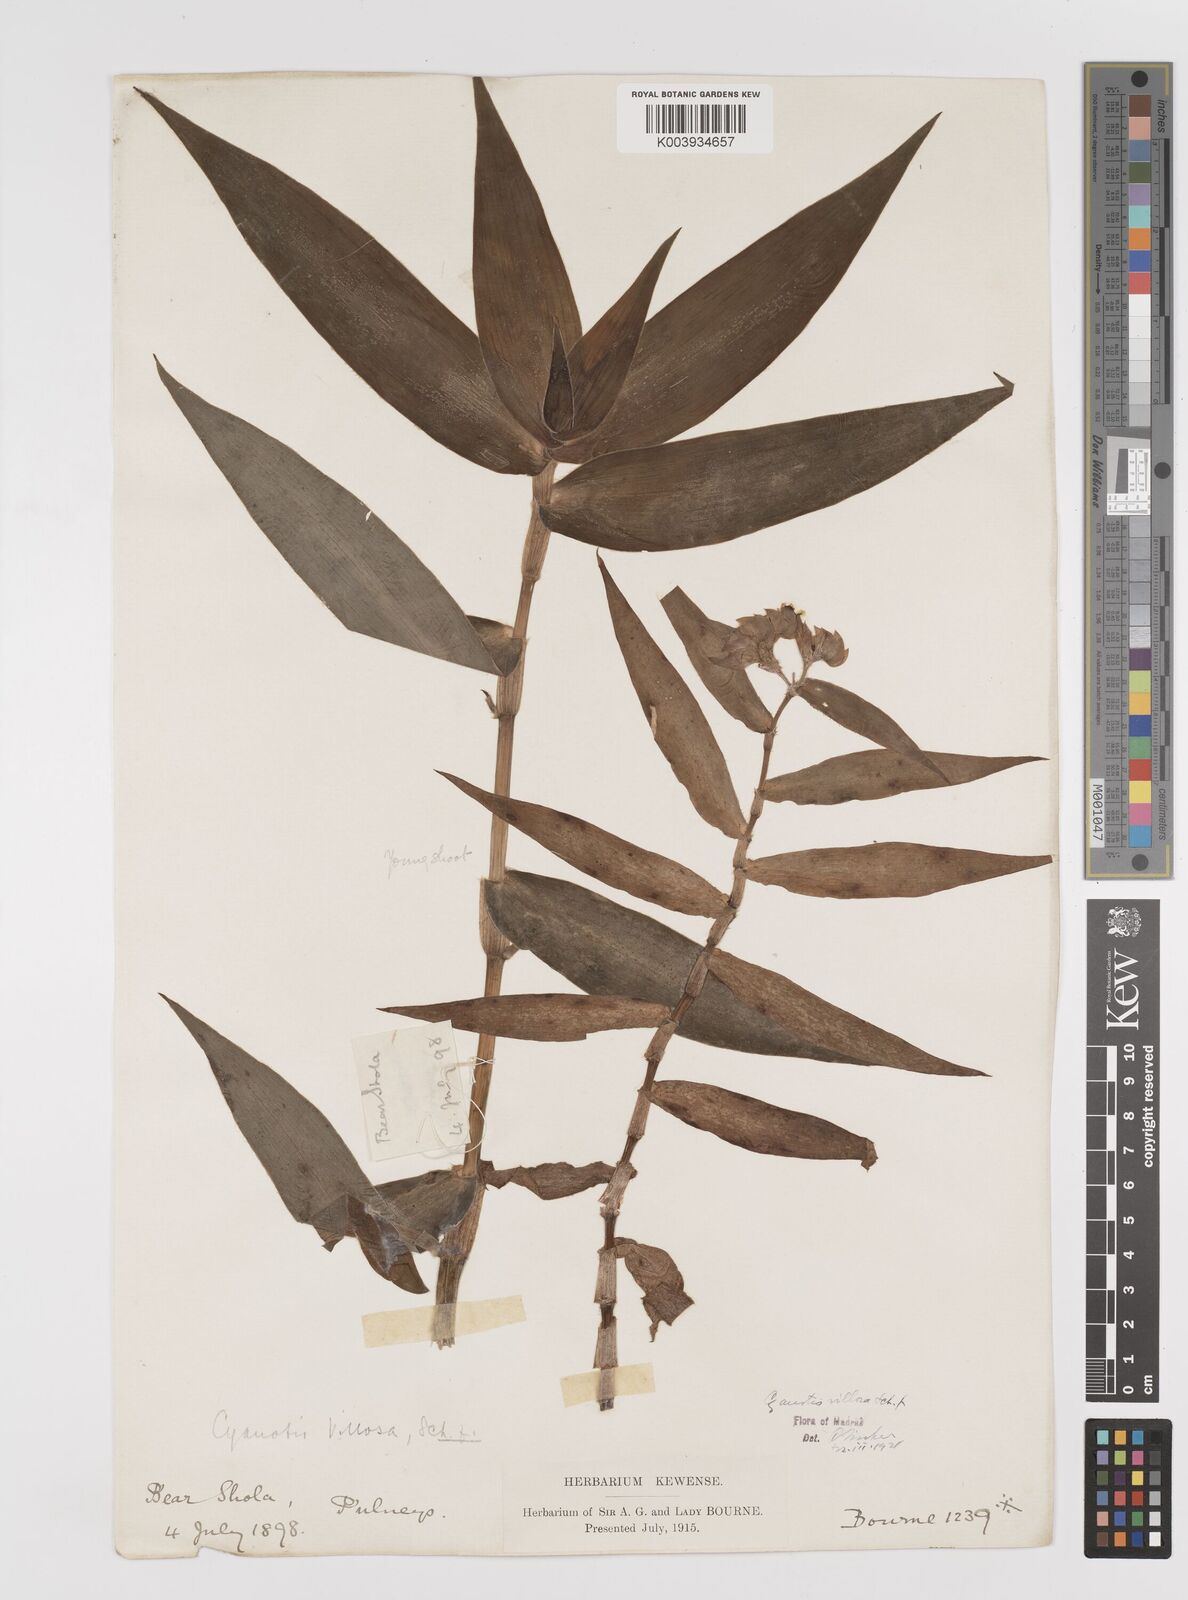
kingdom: Plantae
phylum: Tracheophyta
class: Liliopsida
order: Commelinales
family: Commelinaceae
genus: Cyanotis
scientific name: Cyanotis villosa
